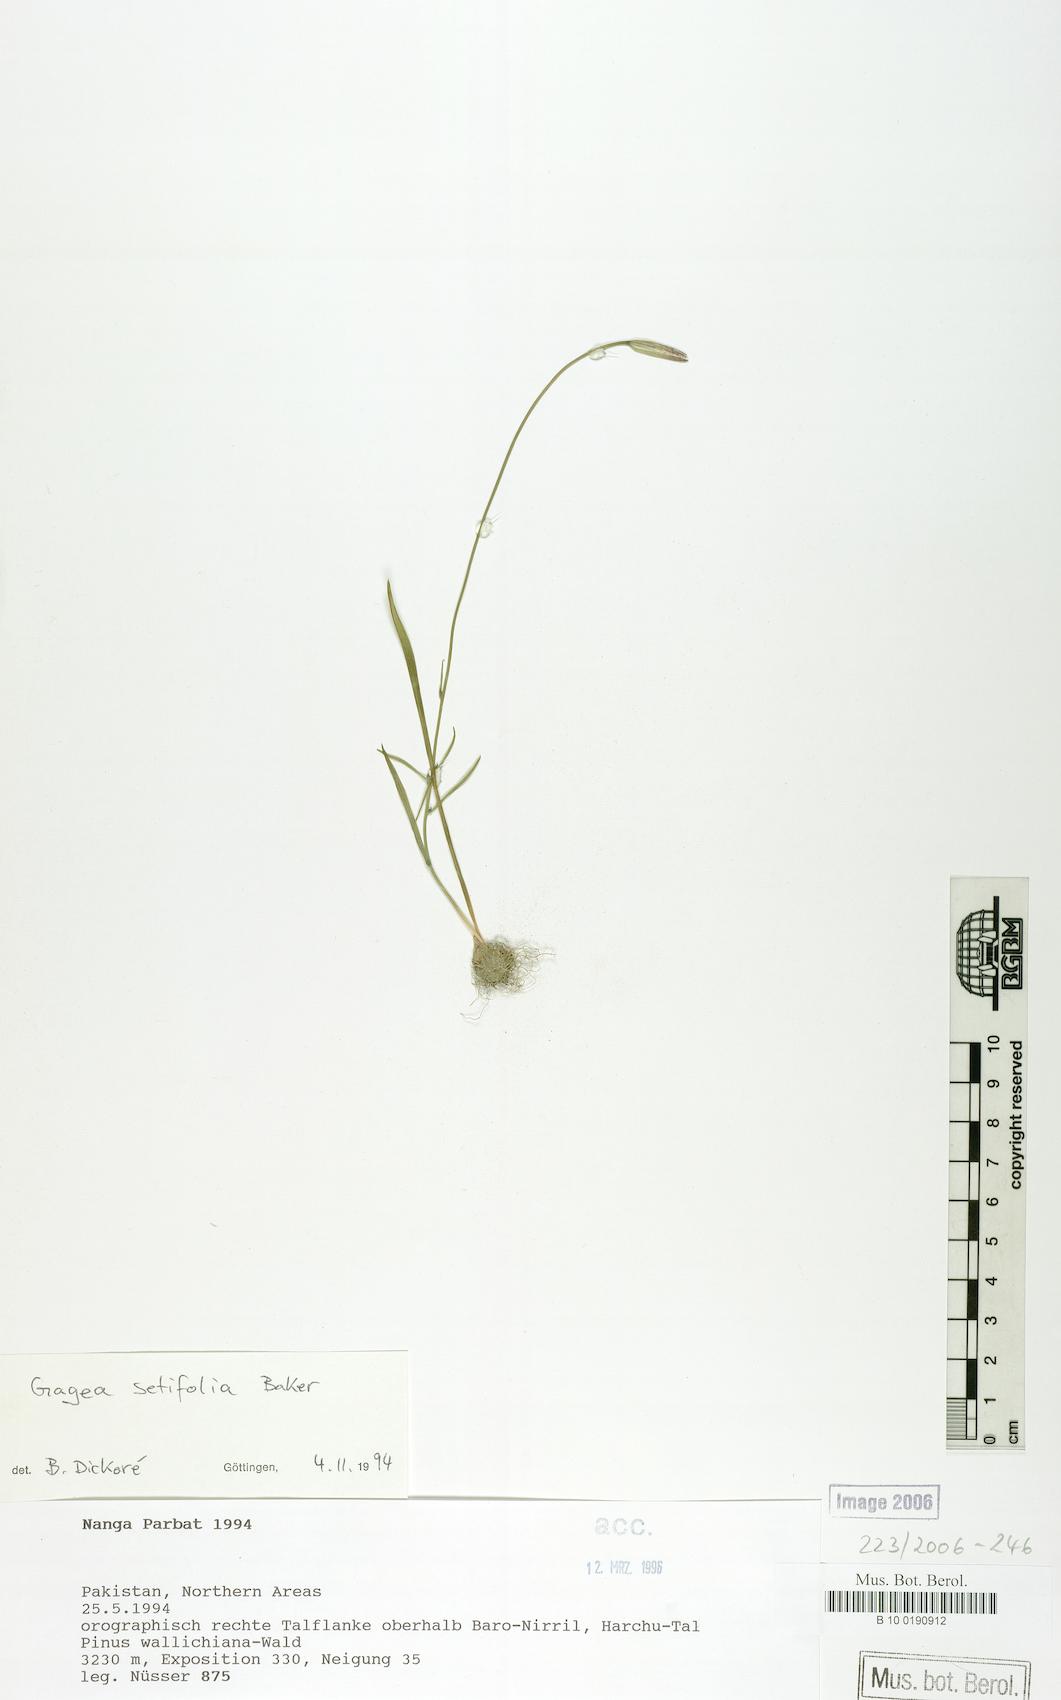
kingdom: Plantae
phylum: Tracheophyta
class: Liliopsida
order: Liliales
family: Liliaceae
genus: Gagea
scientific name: Gagea setifolia
